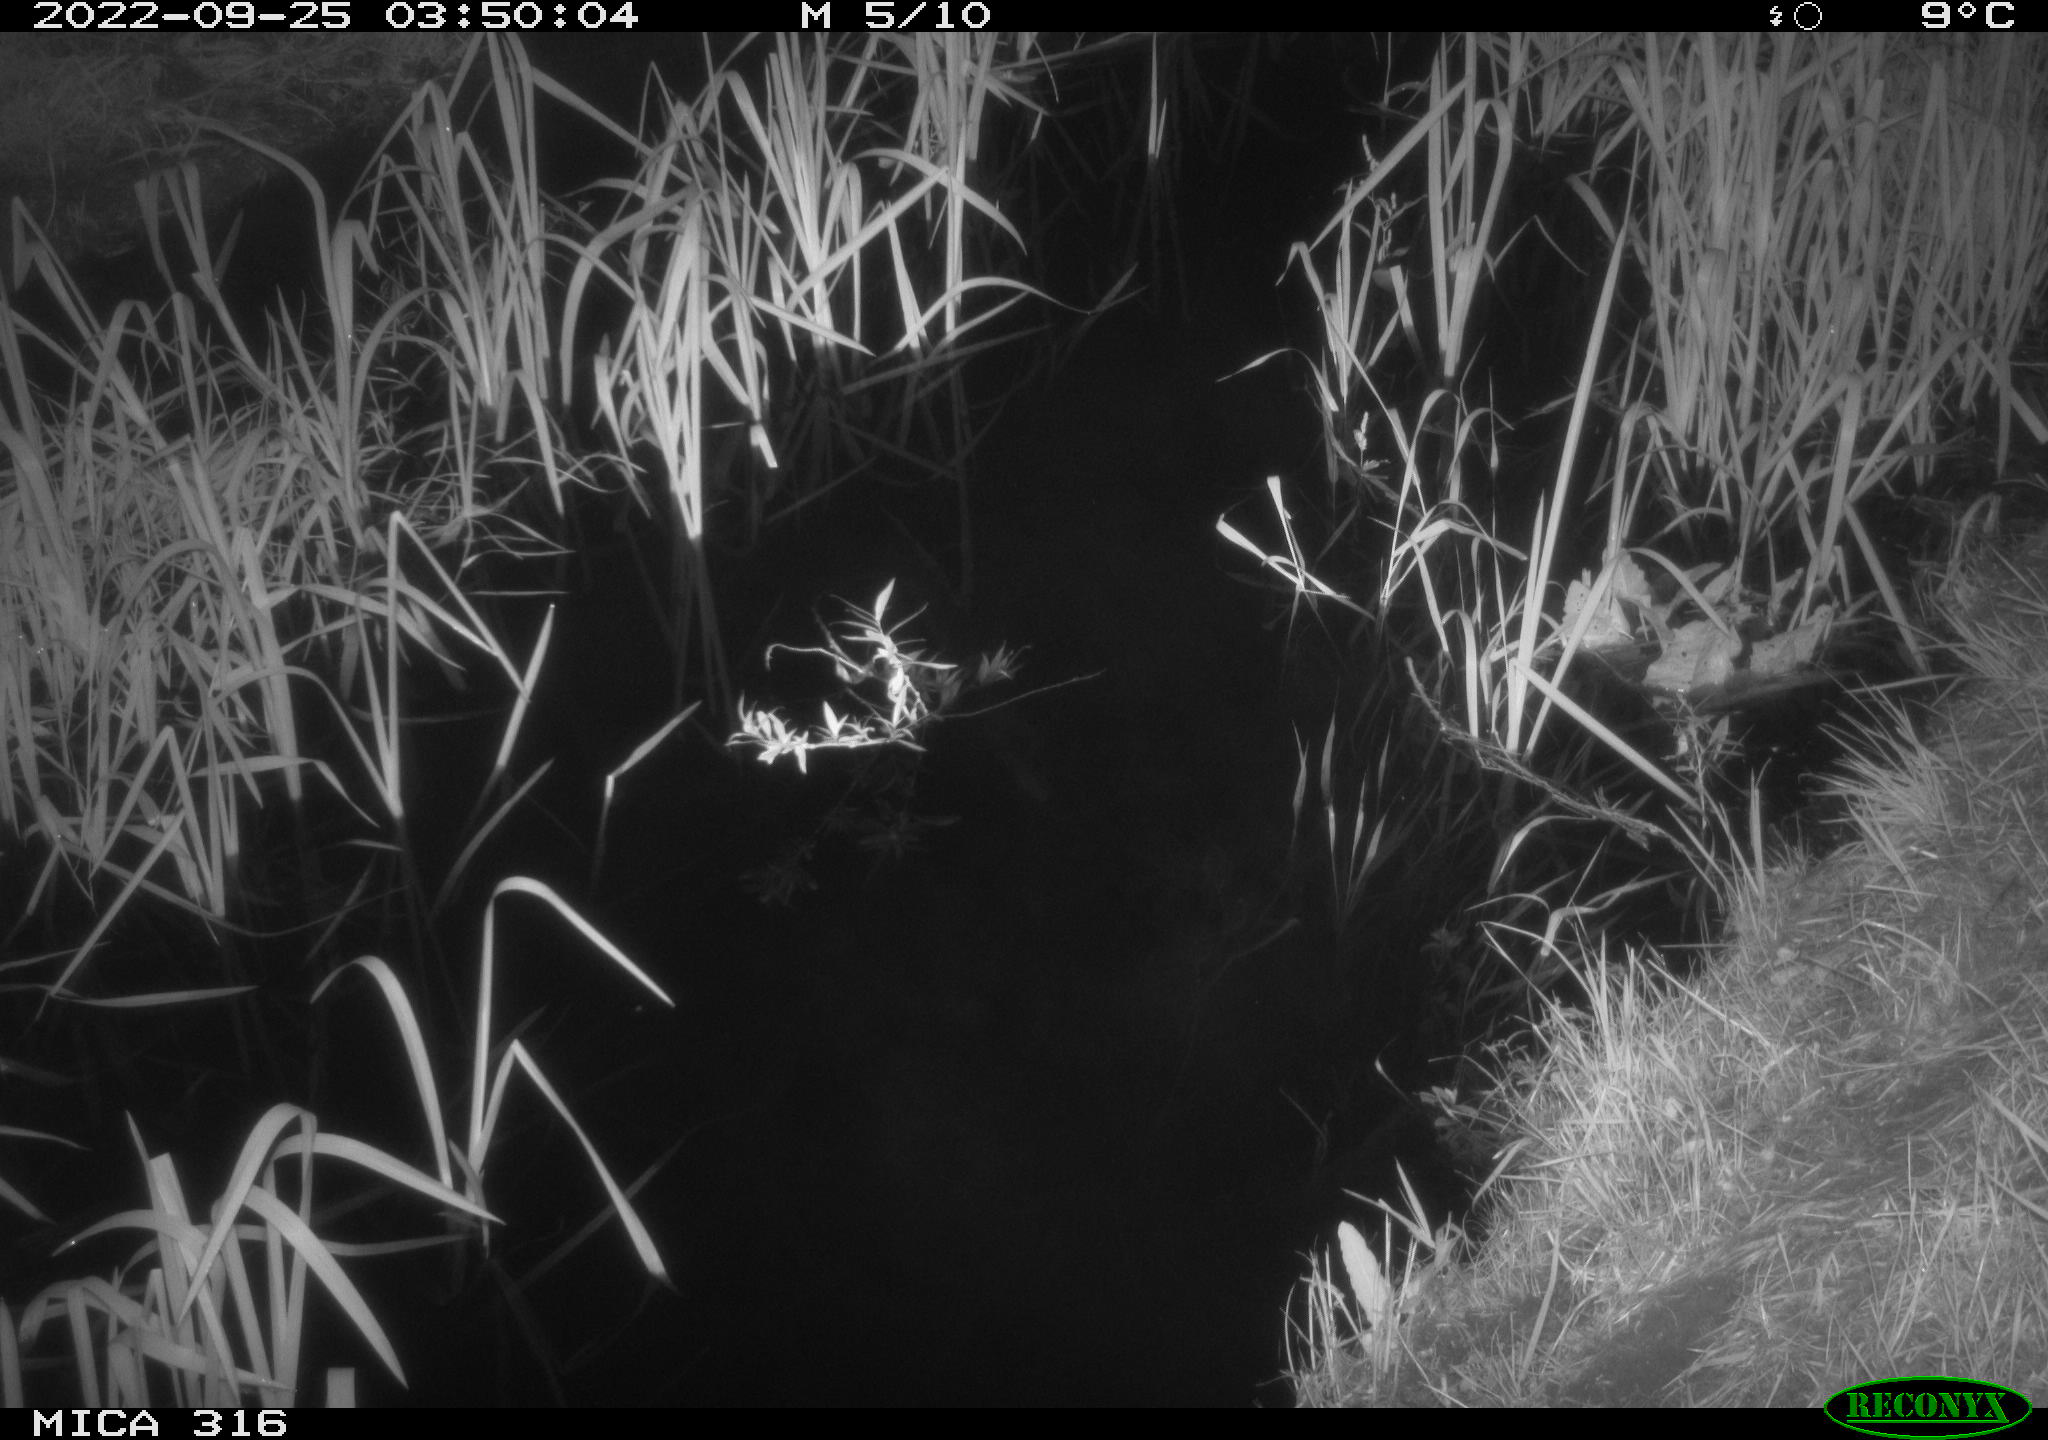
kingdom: Animalia
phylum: Chordata
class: Mammalia
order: Rodentia
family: Muridae
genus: Rattus
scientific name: Rattus norvegicus
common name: Brown rat
